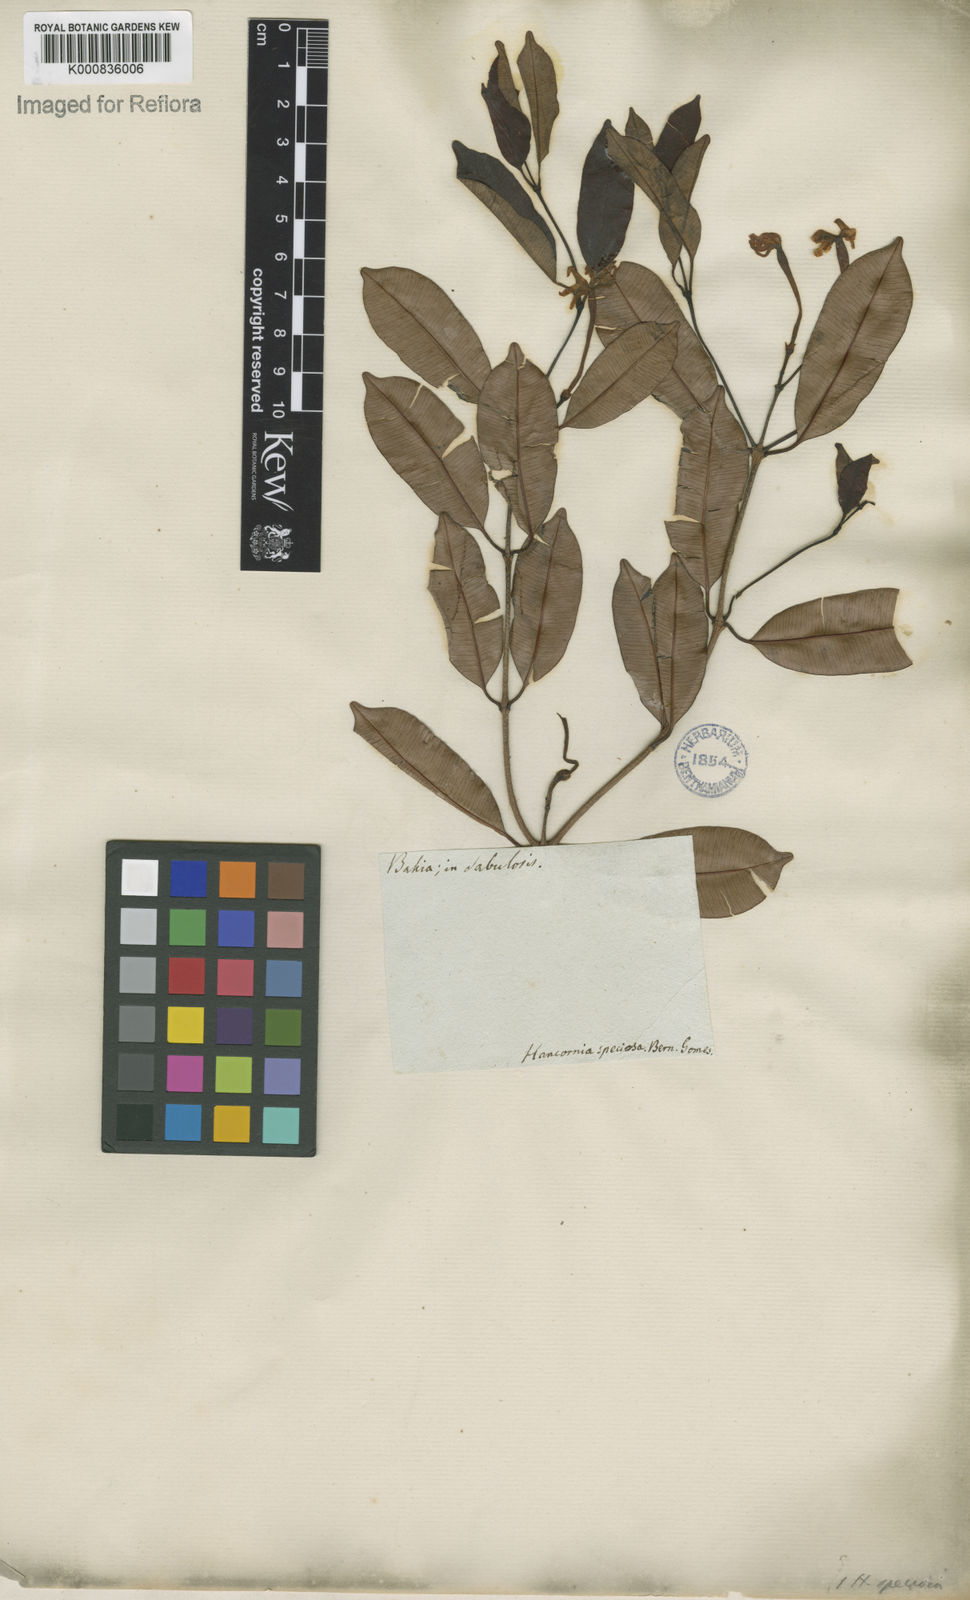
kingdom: Plantae
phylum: Tracheophyta
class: Magnoliopsida
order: Gentianales
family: Apocynaceae
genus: Hancornia
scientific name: Hancornia speciosa
